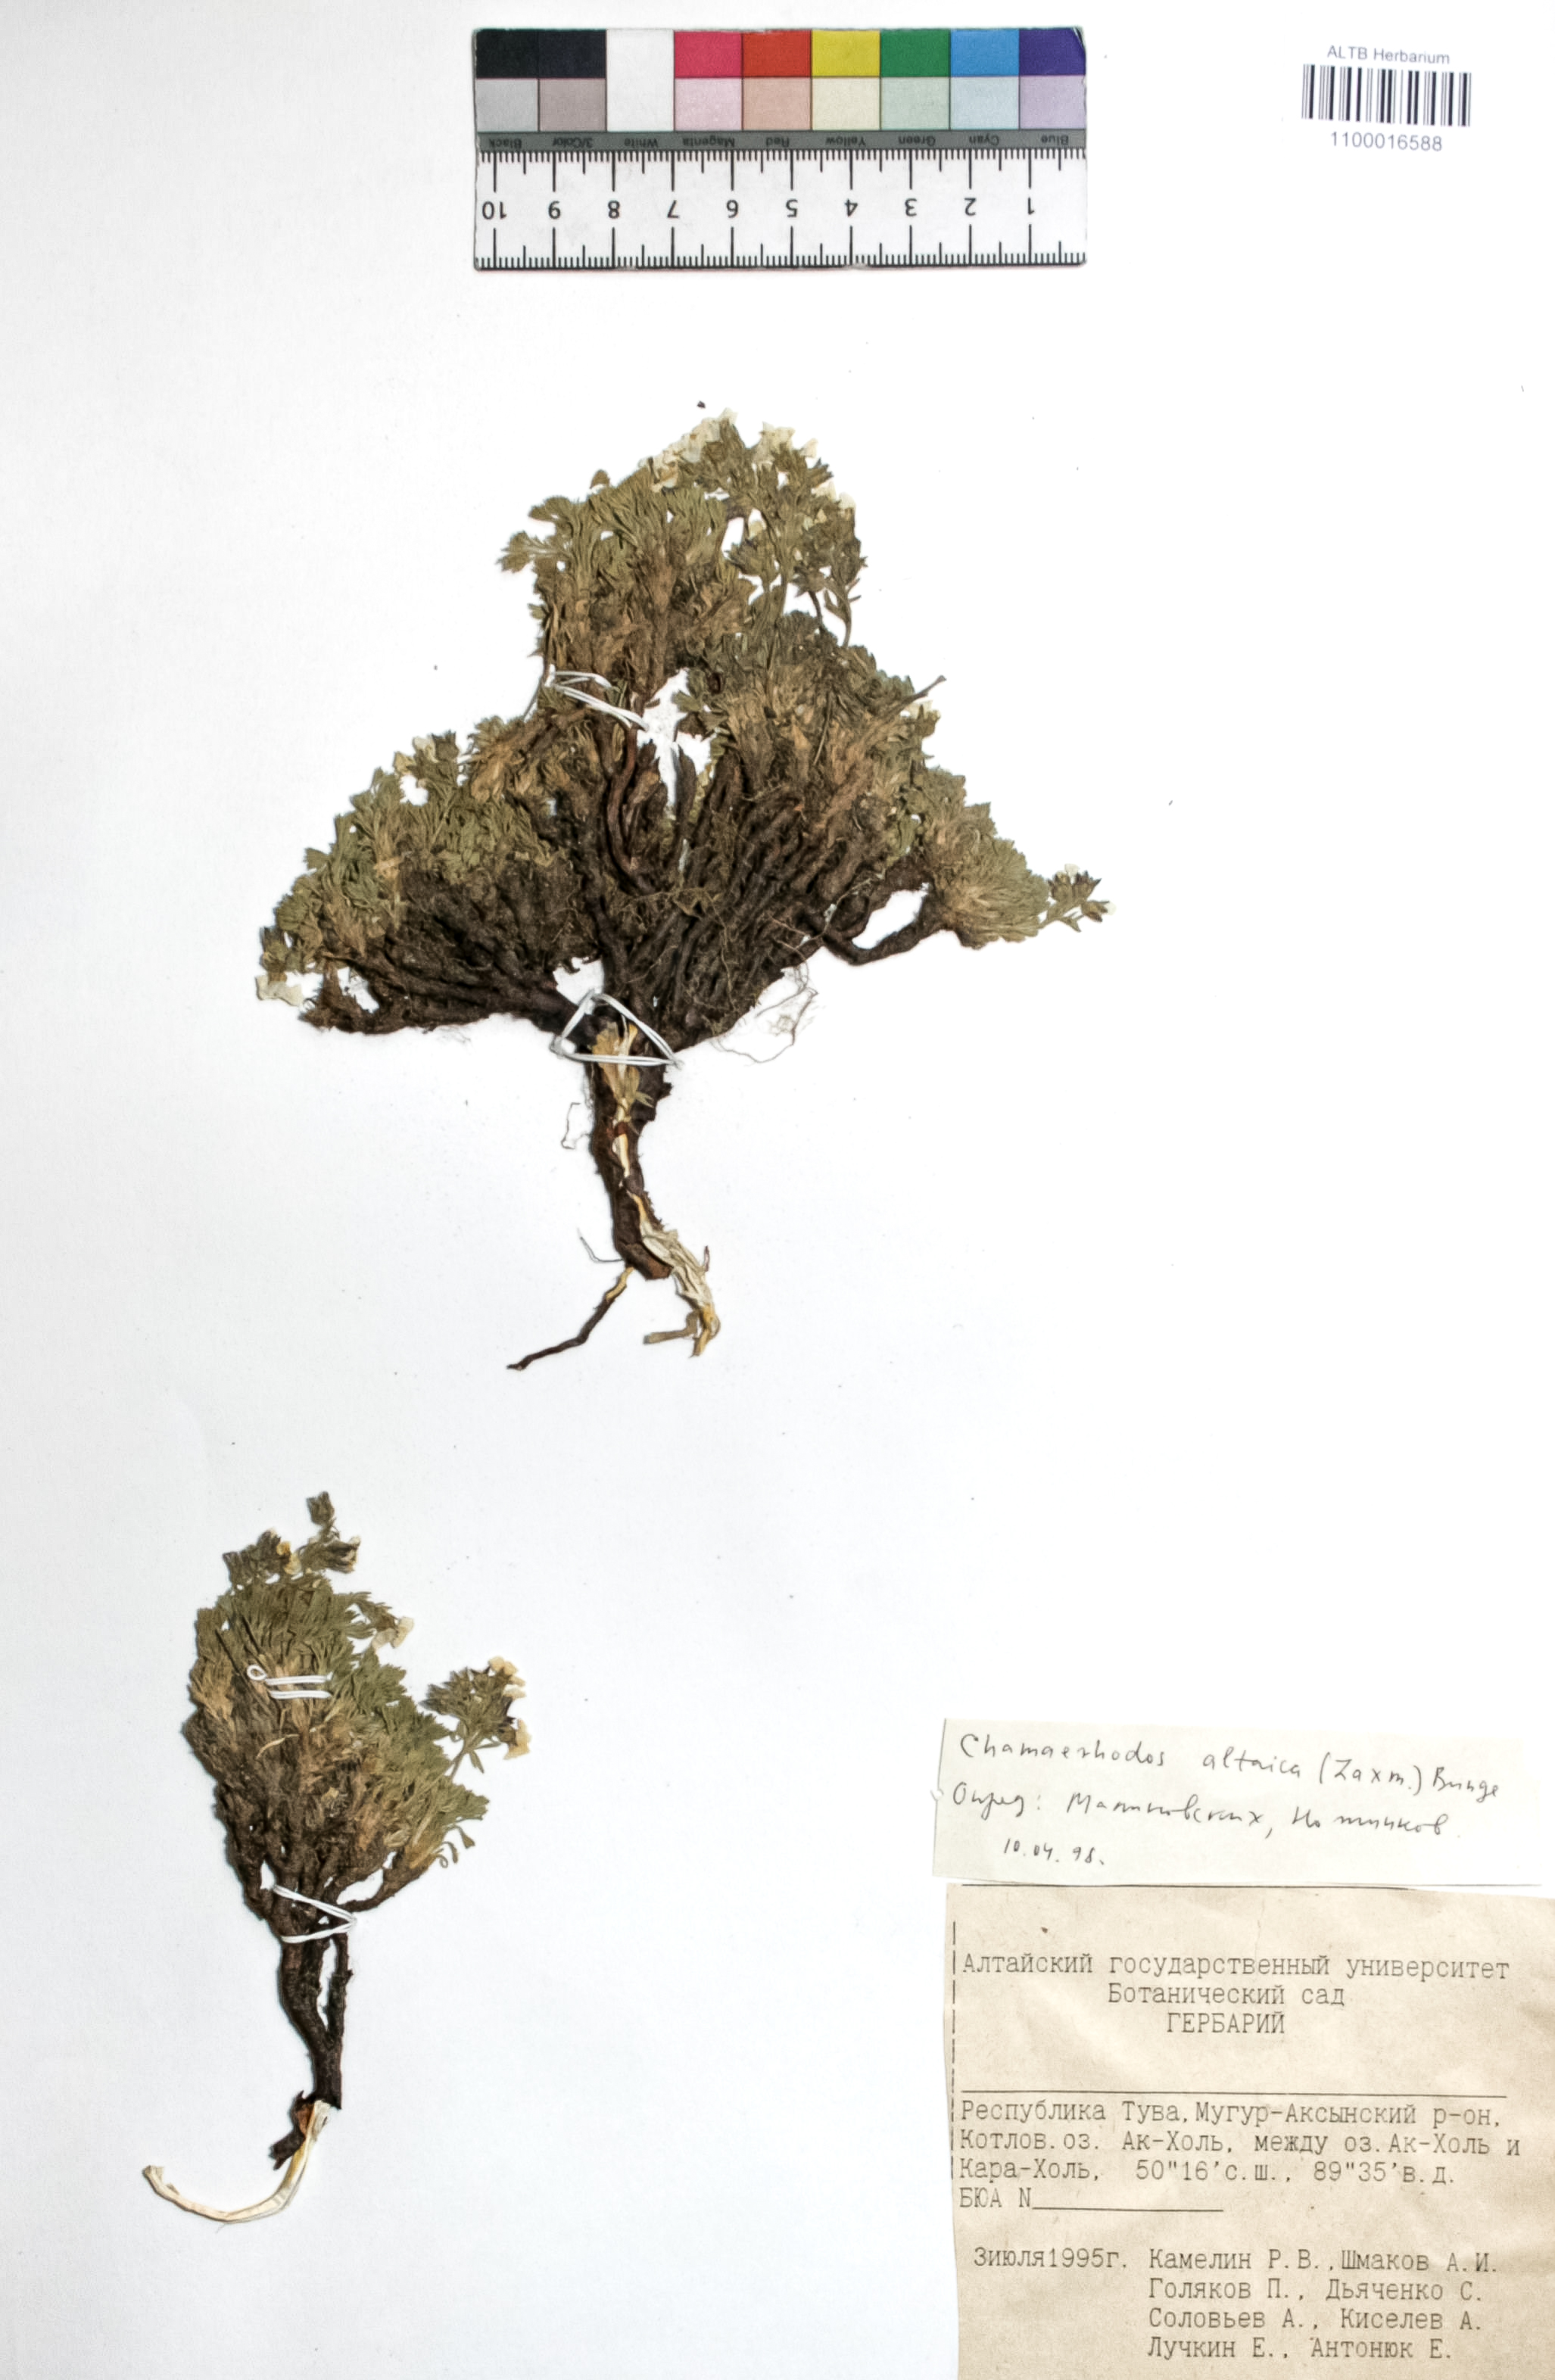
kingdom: Plantae
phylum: Tracheophyta
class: Magnoliopsida
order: Rosales
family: Rosaceae
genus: Chamaerhodos
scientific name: Chamaerhodos altaica
